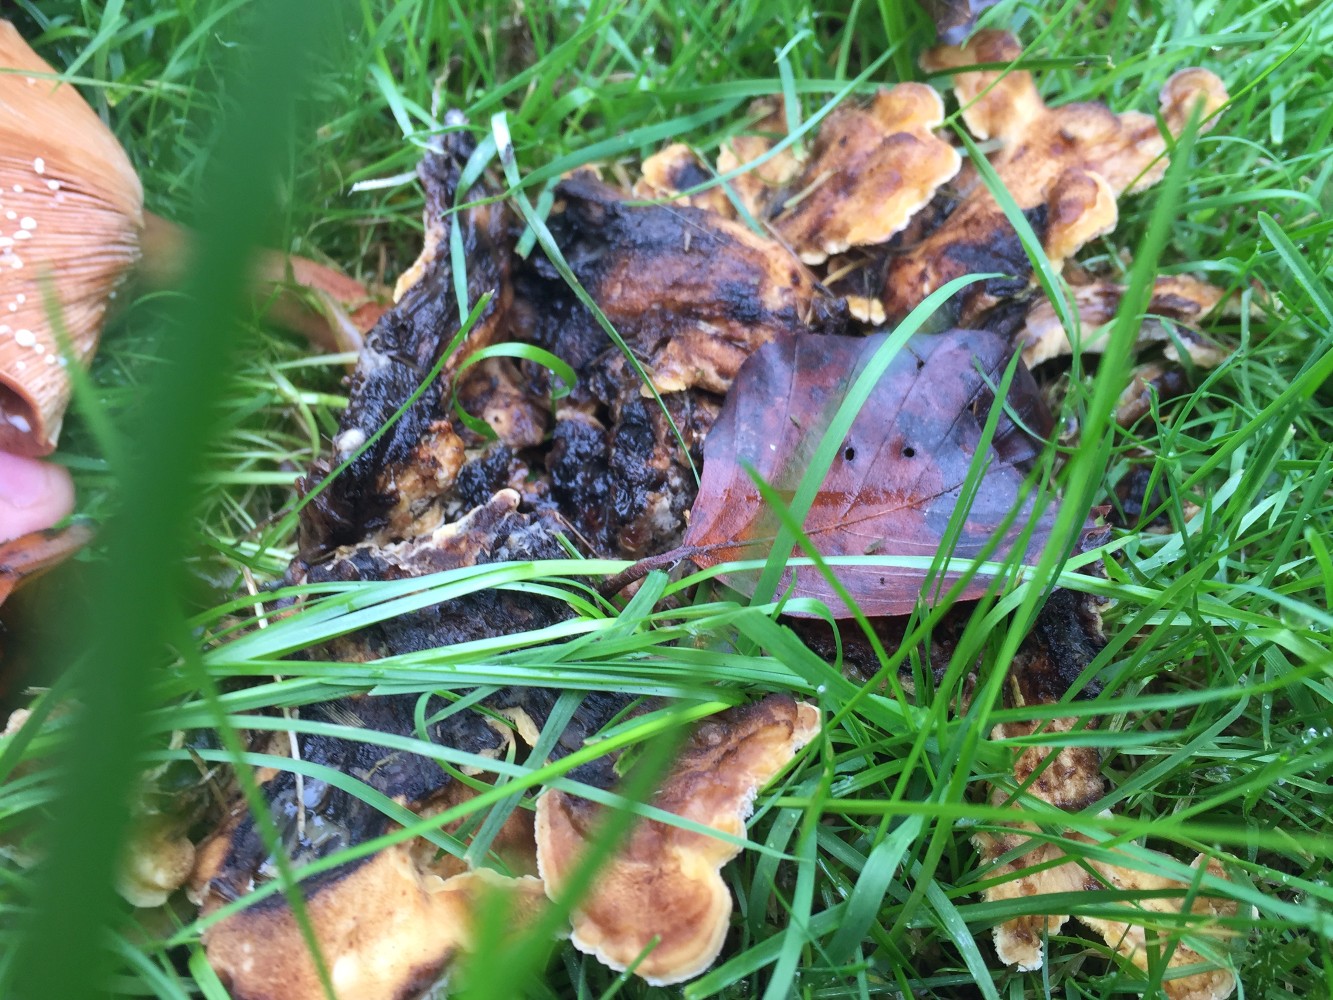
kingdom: Fungi
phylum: Basidiomycota
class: Agaricomycetes
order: Polyporales
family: Meripilaceae
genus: Meripilus
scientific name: Meripilus giganteus
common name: kæmpeporesvamp
